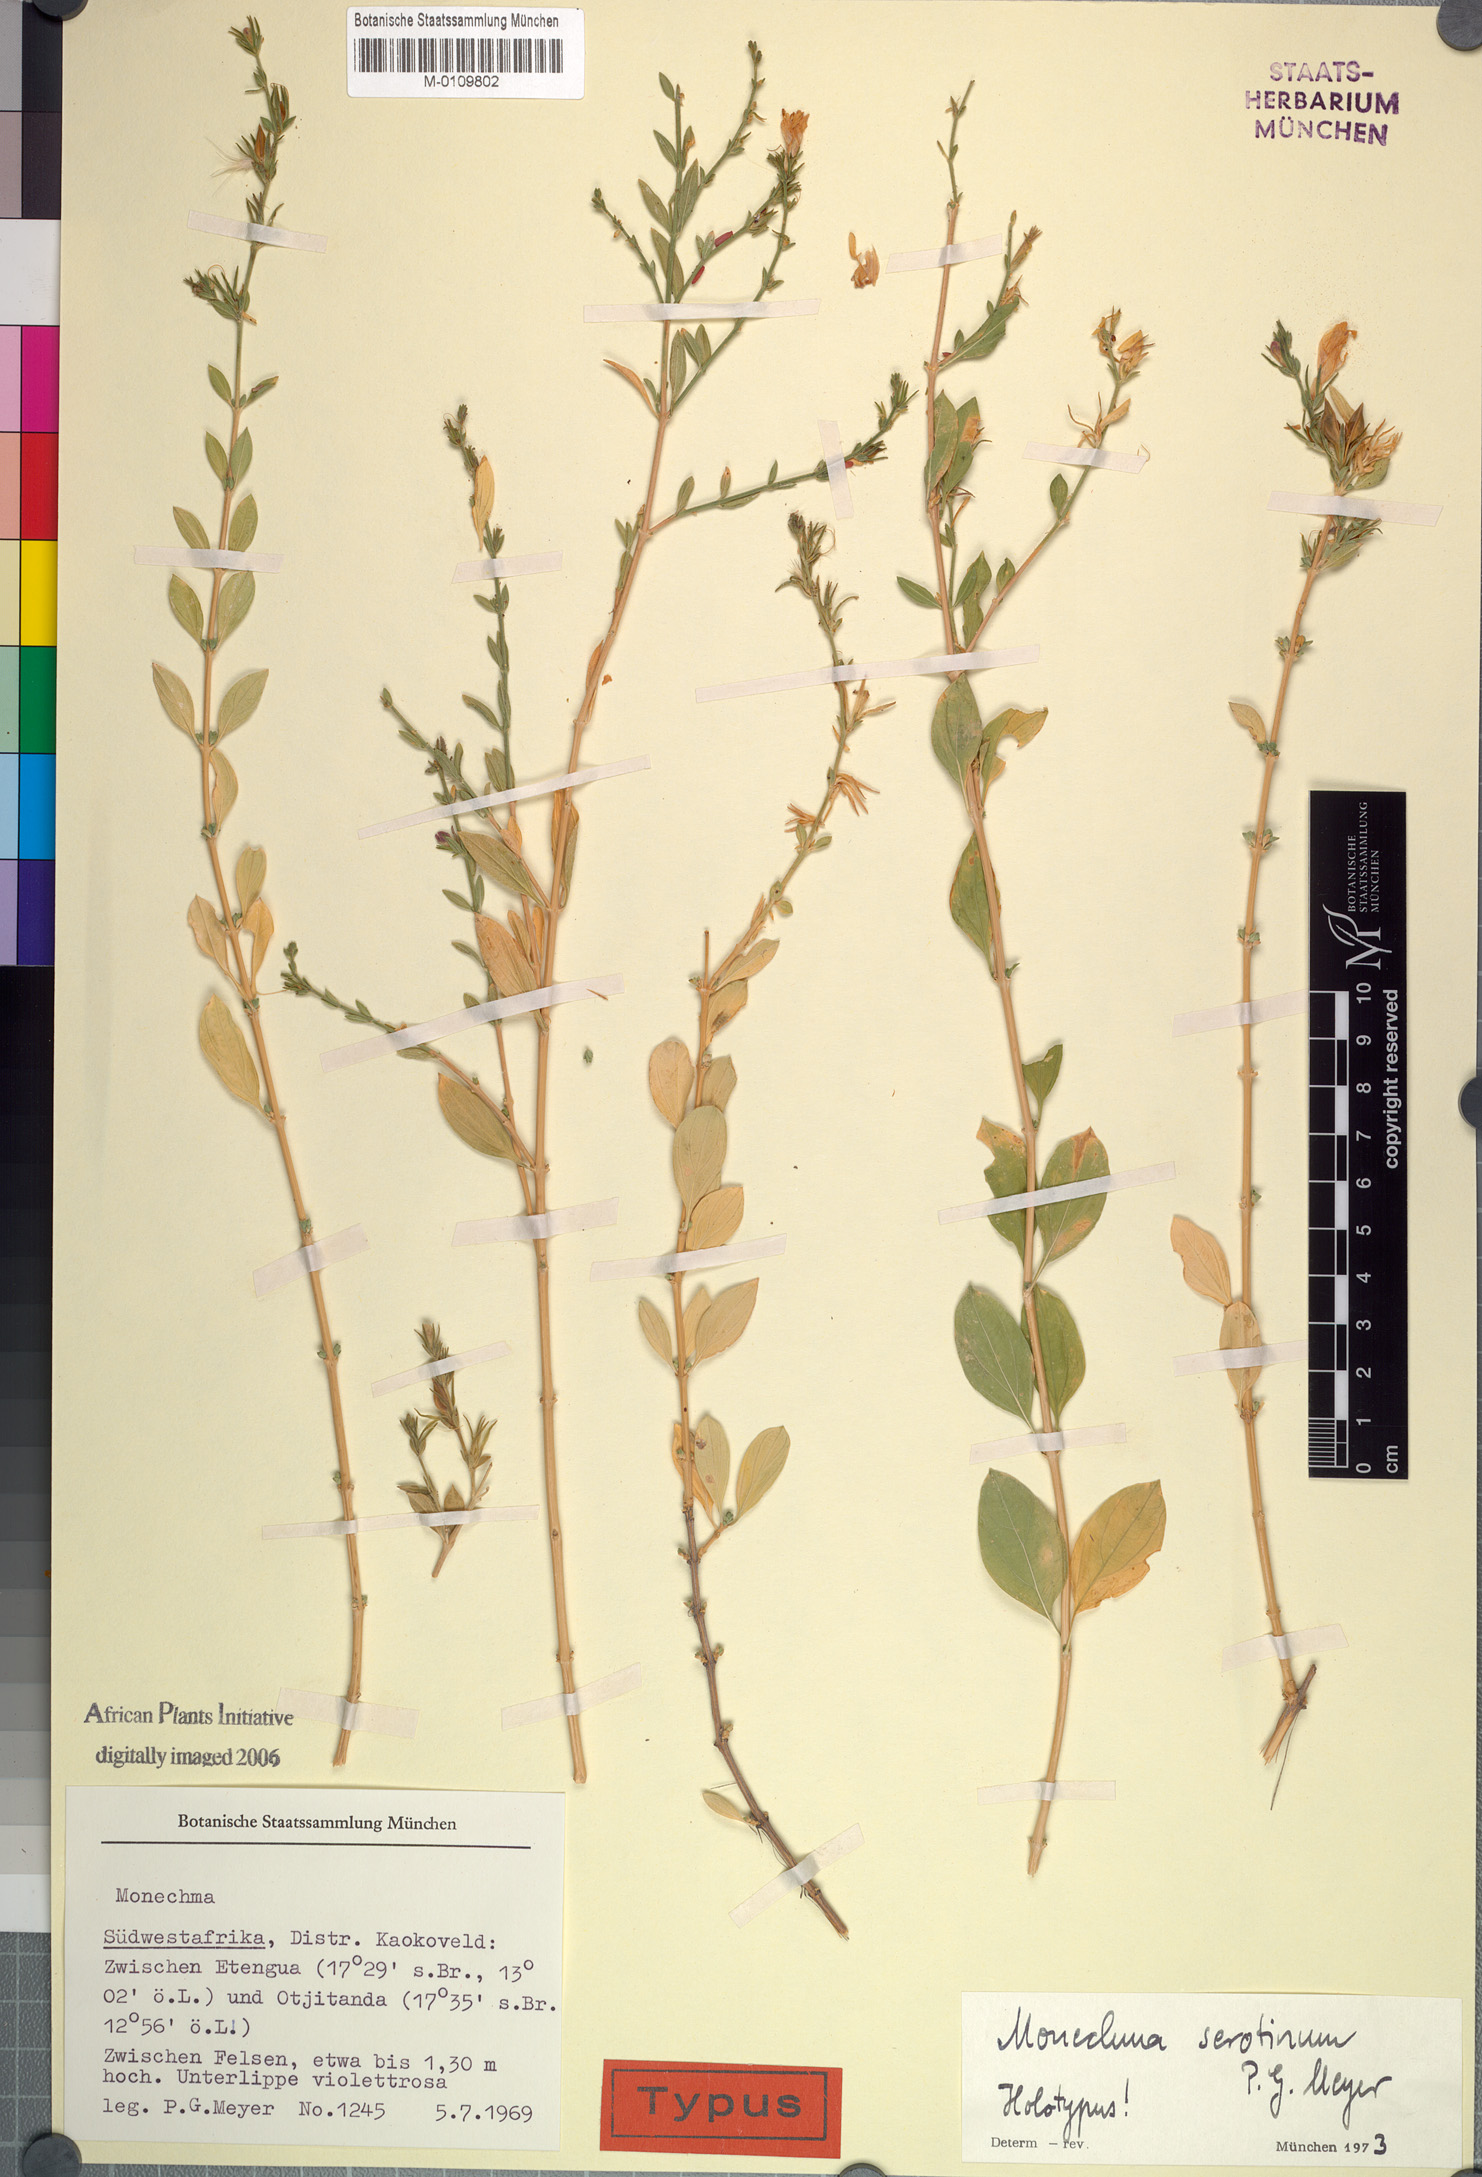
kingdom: Plantae
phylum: Tracheophyta
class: Magnoliopsida
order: Lamiales
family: Acanthaceae
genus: Monechma
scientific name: Monechma serotinum
